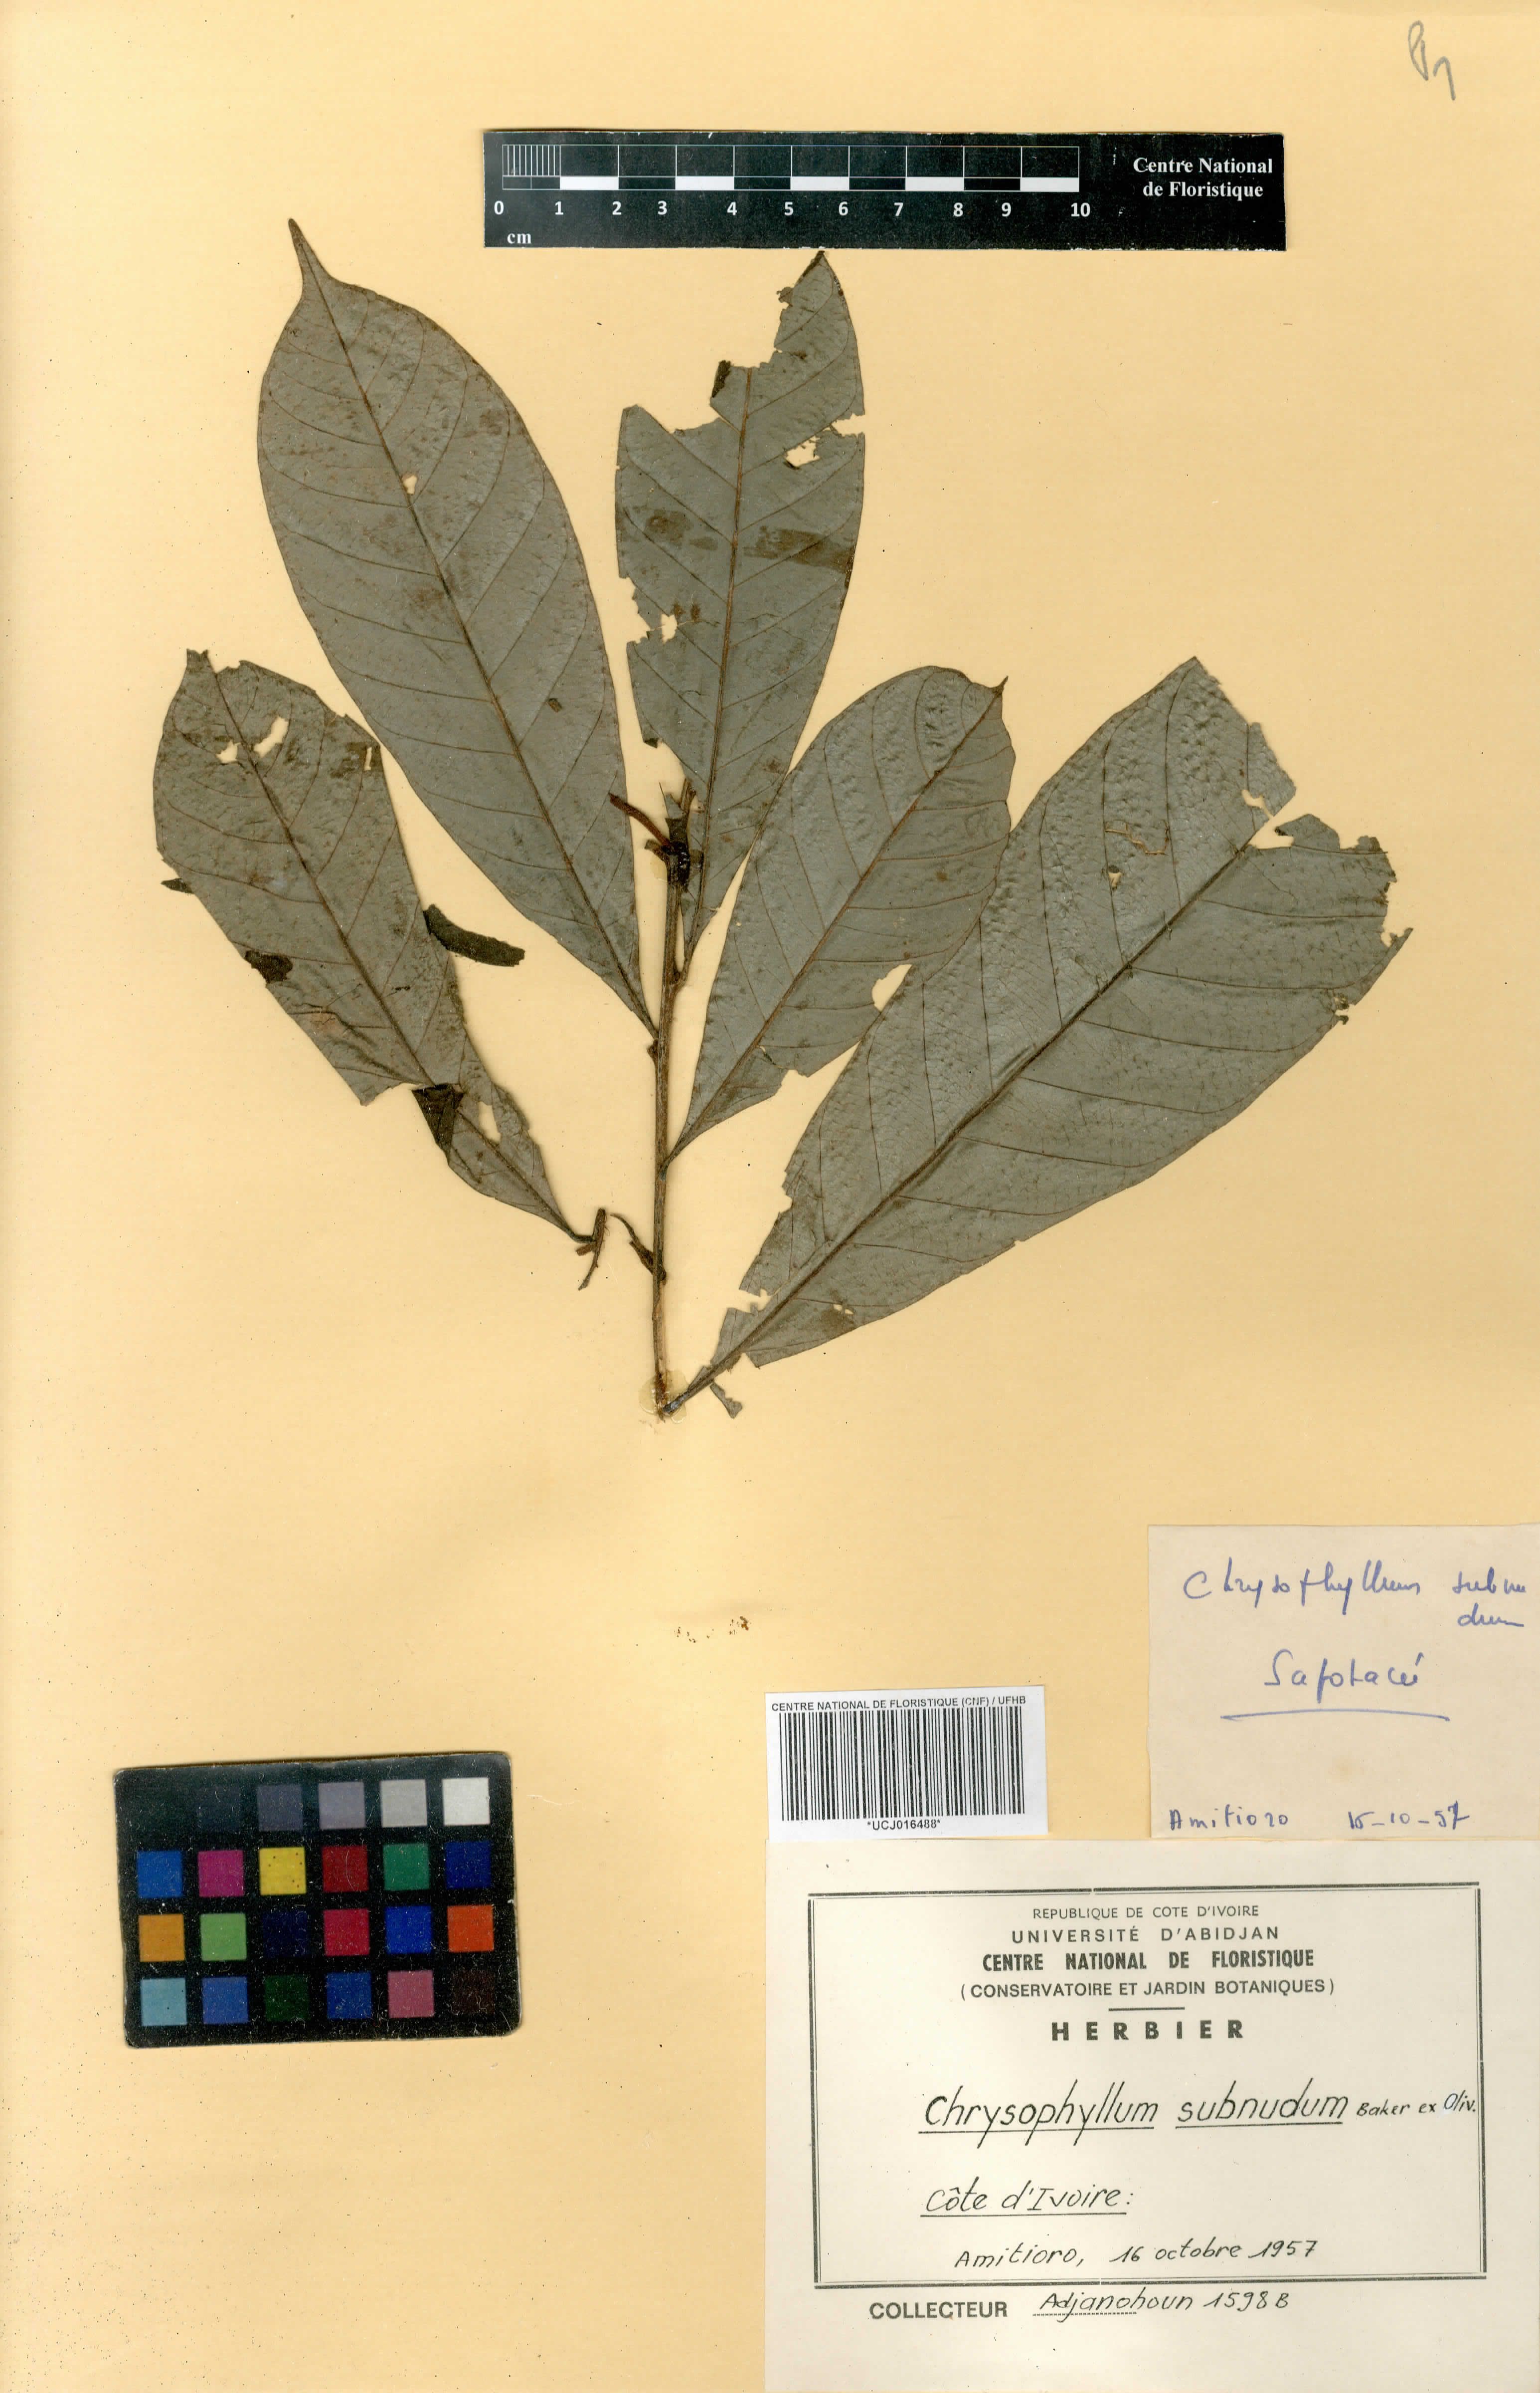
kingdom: Plantae
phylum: Tracheophyta
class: Magnoliopsida
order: Ericales
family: Sapotaceae
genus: Gambeya
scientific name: Gambeya subnuda
